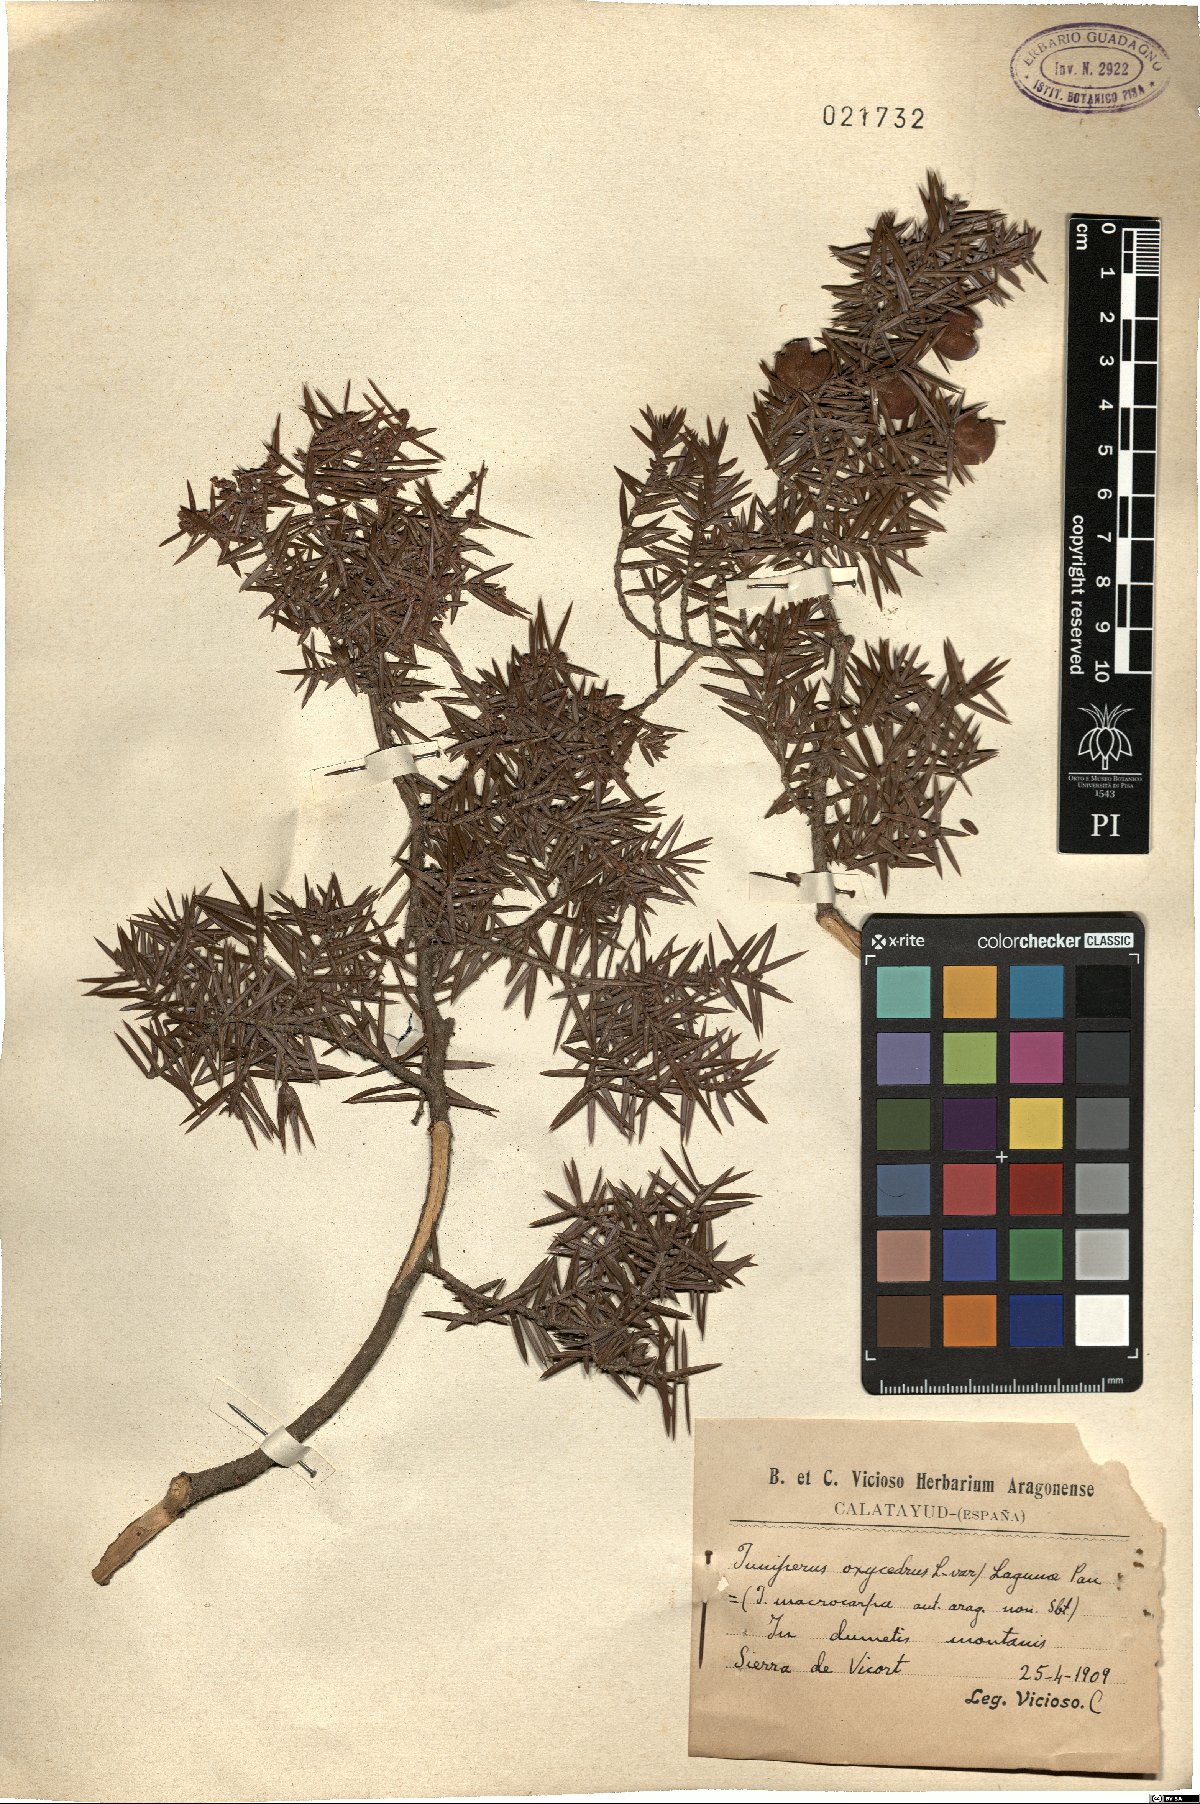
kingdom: Plantae
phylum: Tracheophyta
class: Pinopsida
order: Pinales
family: Cupressaceae
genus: Juniperus
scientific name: Juniperus oxycedrus
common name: Prickly juniper
